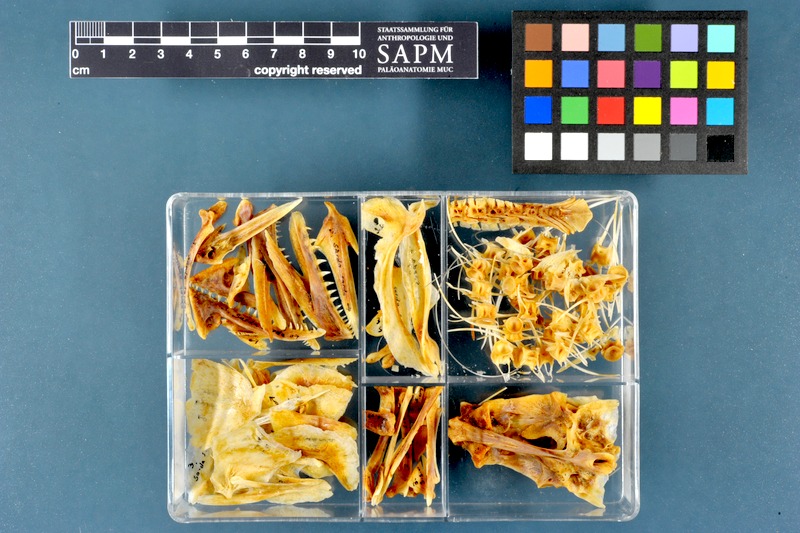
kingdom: Animalia
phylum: Chordata
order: Perciformes
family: Scombridae
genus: Sarda
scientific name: Sarda sarda
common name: Atlantic bonito
